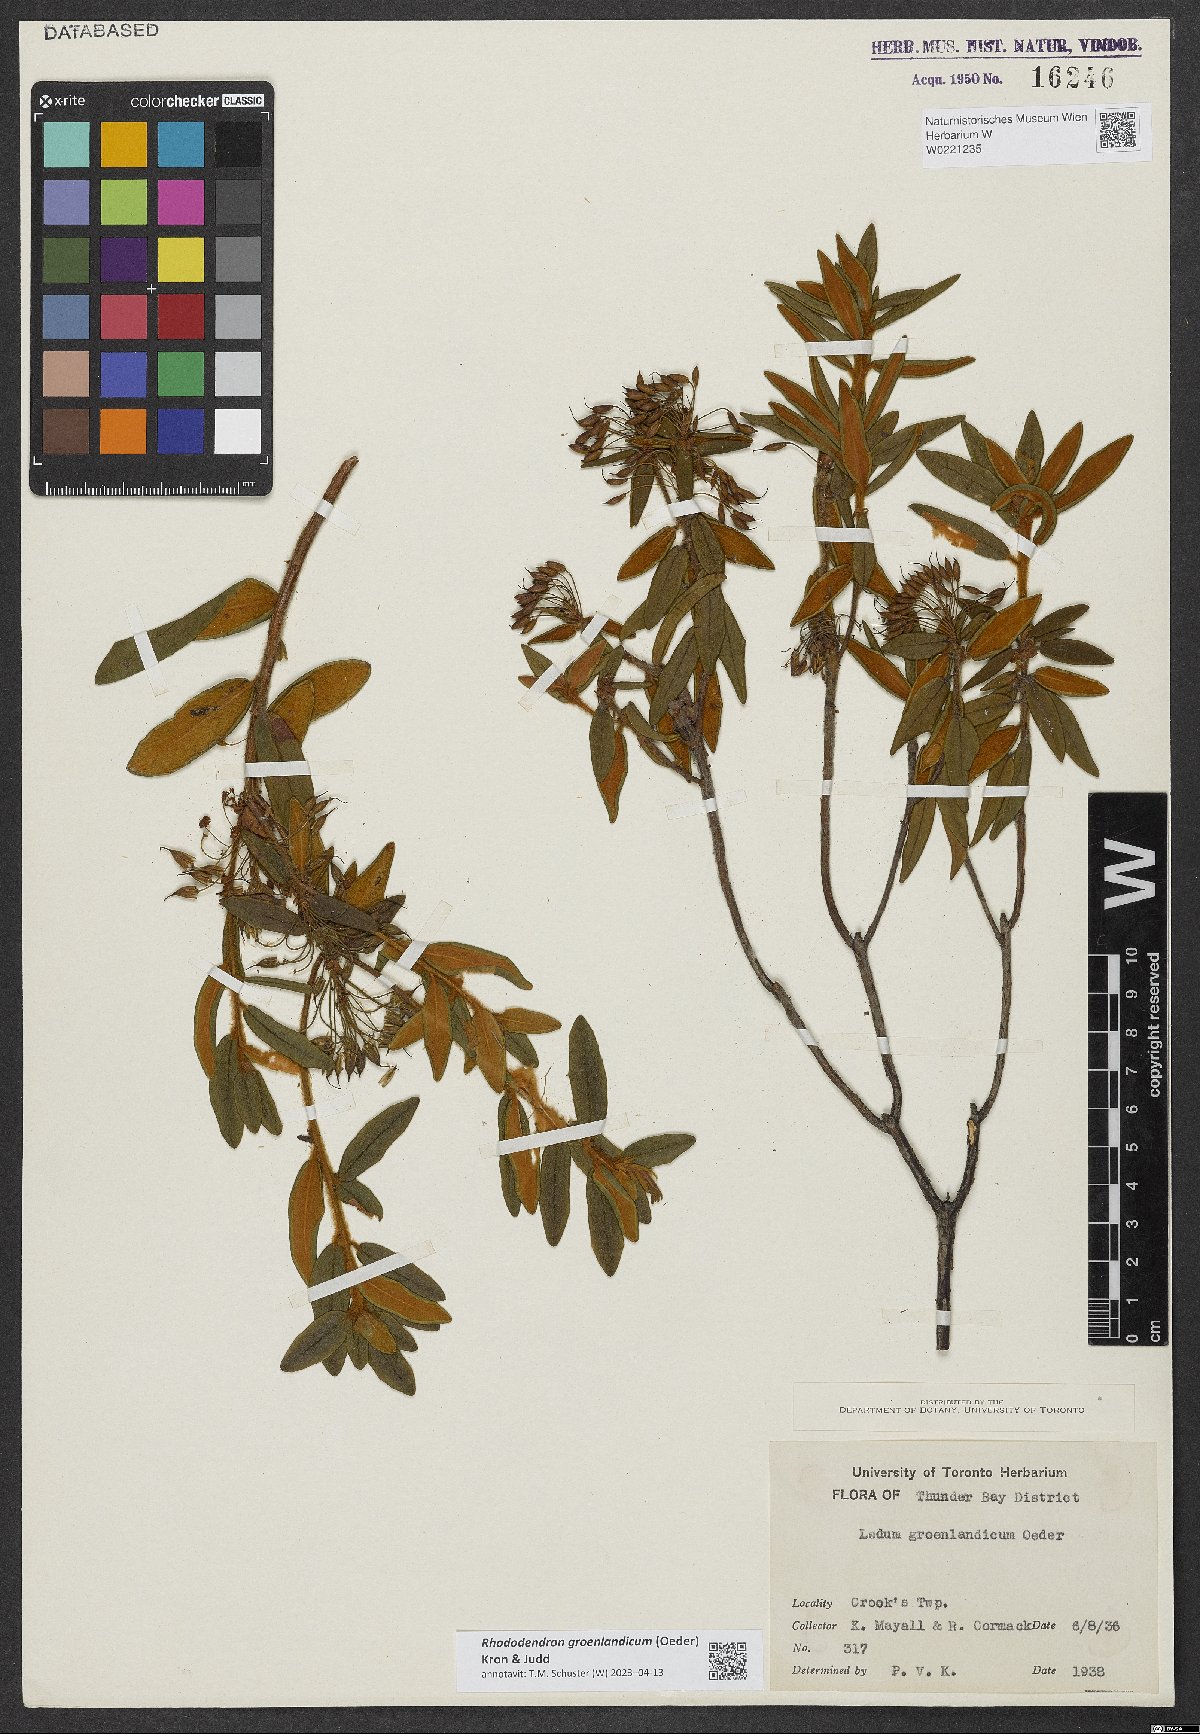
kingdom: Plantae
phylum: Tracheophyta
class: Magnoliopsida
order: Ericales
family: Ericaceae
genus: Rhododendron
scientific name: Rhododendron groenlandicum
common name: Bog labrador tea
